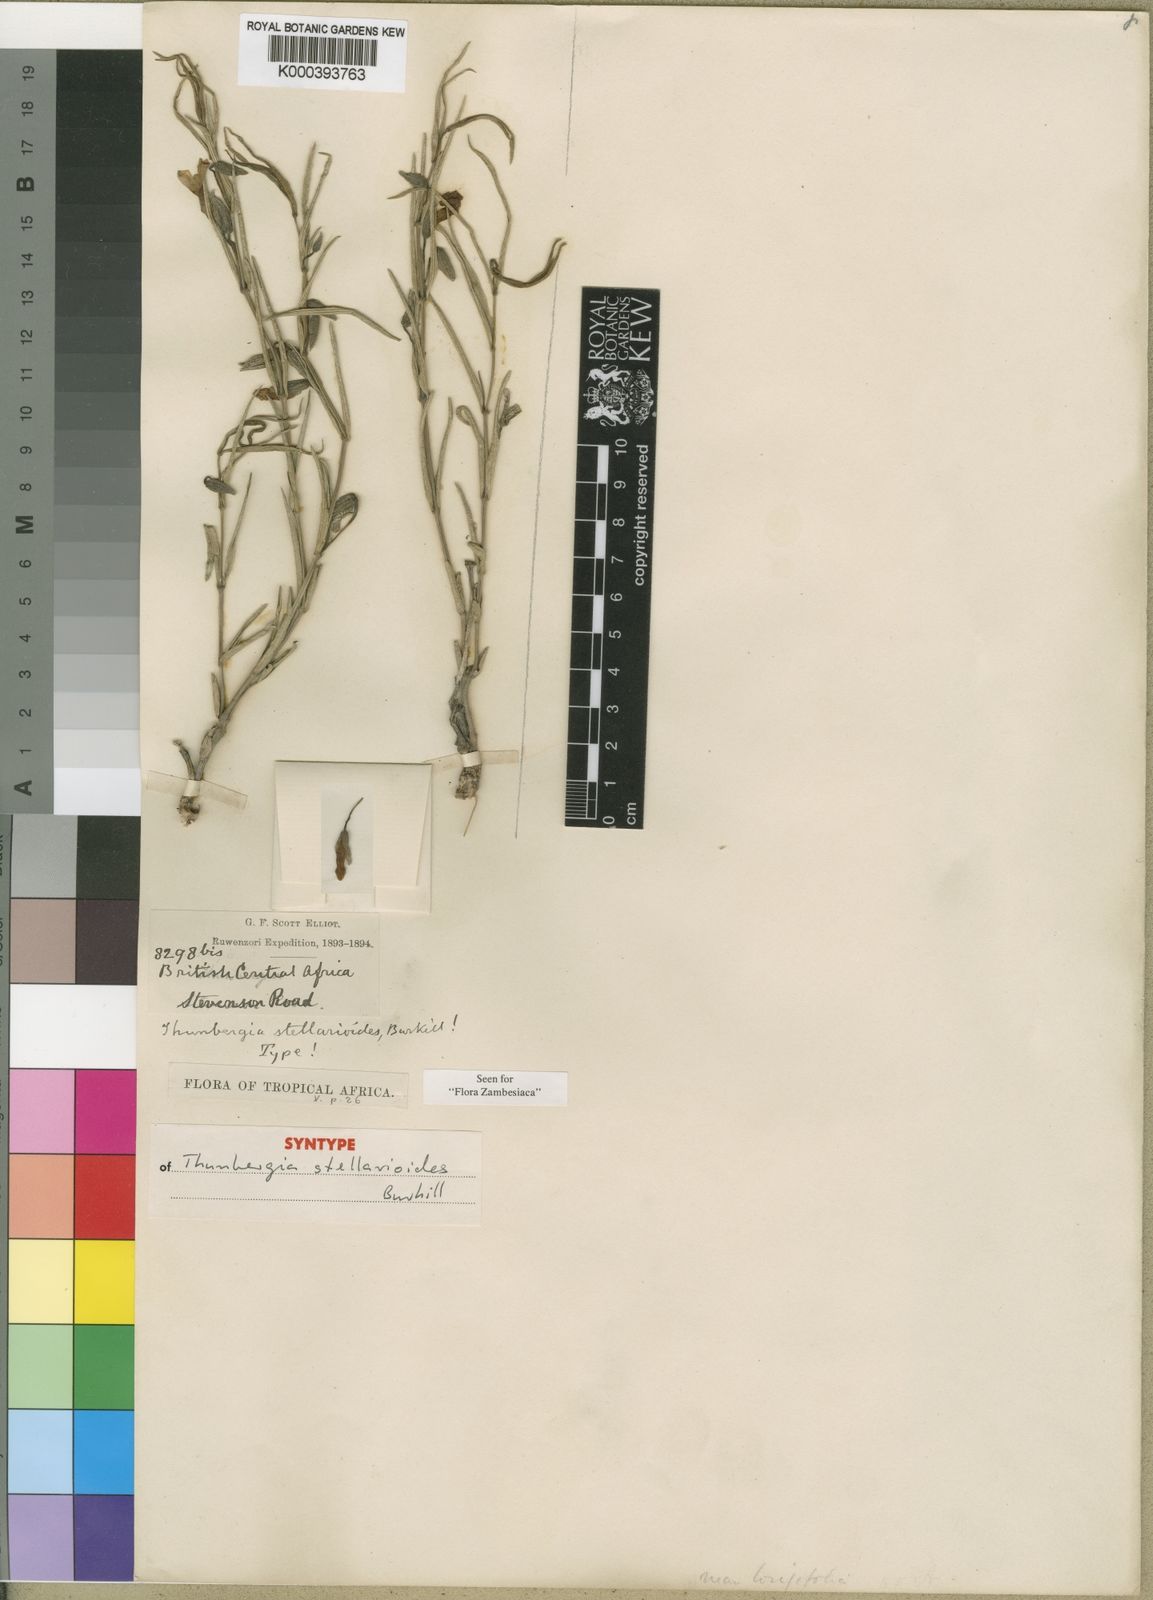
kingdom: Plantae
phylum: Tracheophyta
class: Magnoliopsida
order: Lamiales
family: Acanthaceae
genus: Thunbergia
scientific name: Thunbergia stellarioides
